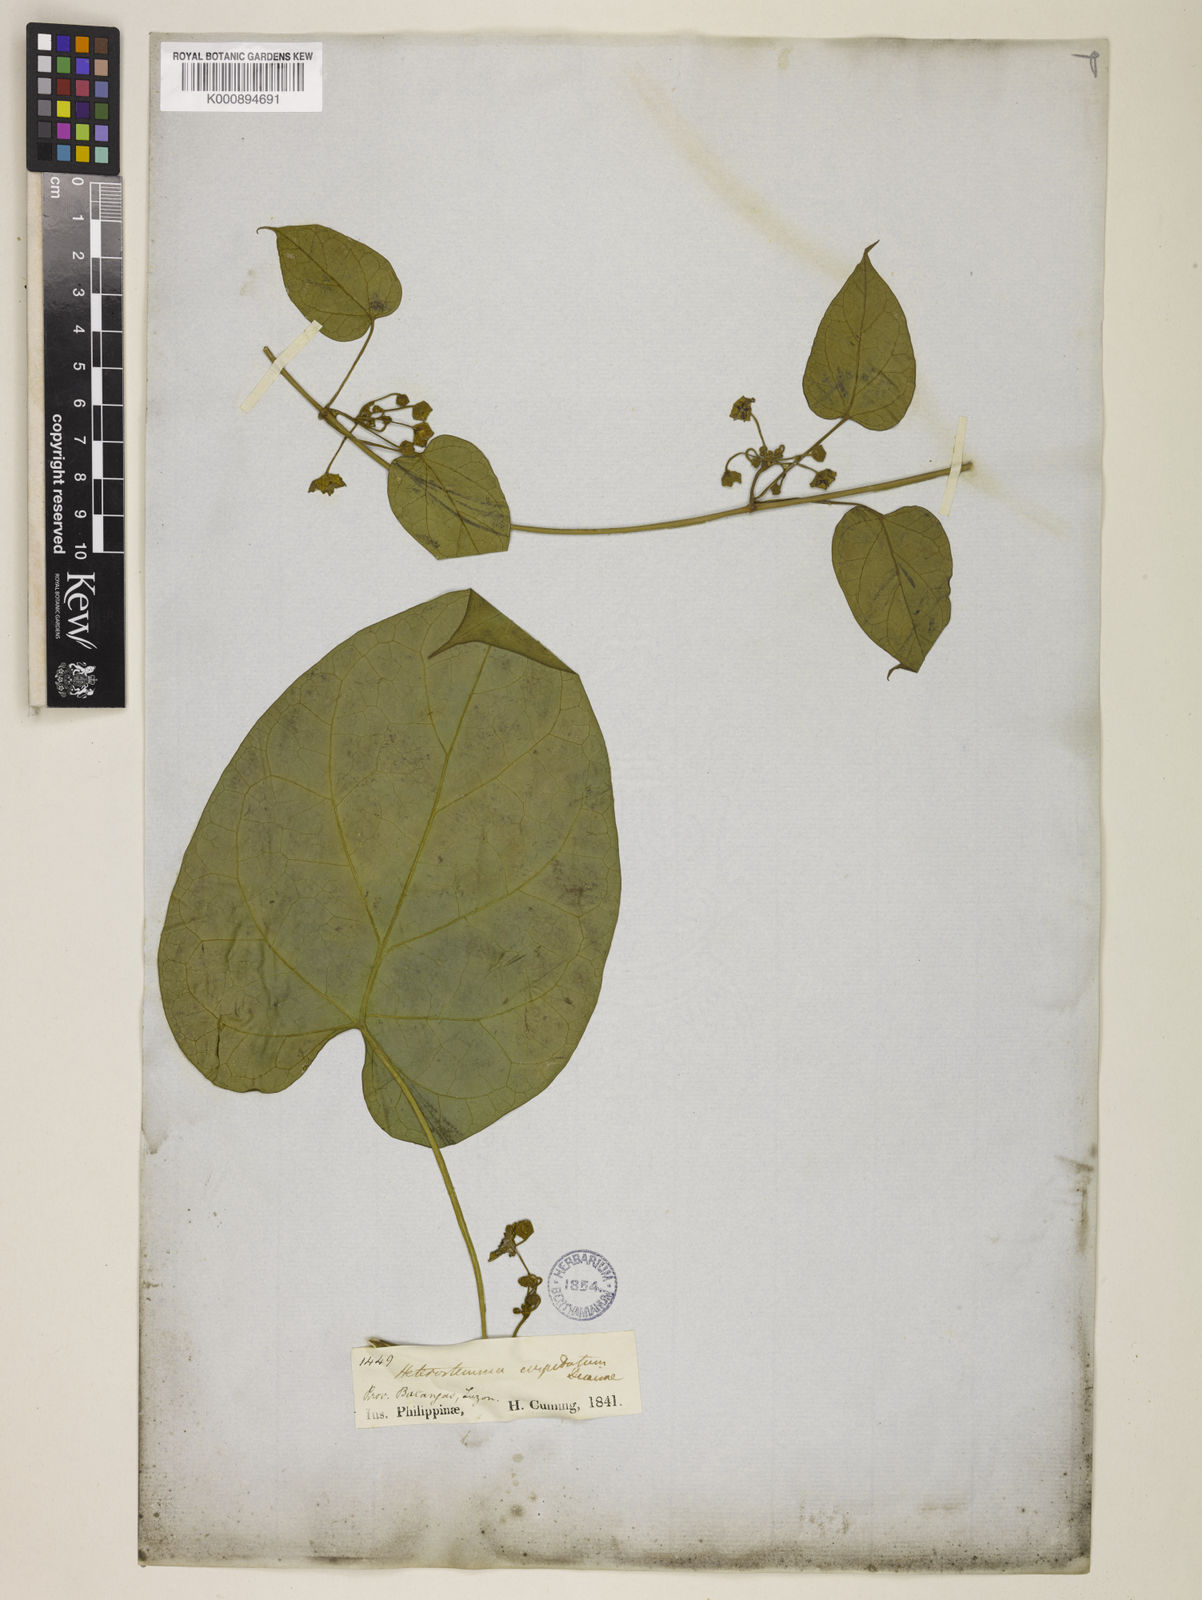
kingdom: Plantae
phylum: Tracheophyta
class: Magnoliopsida
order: Gentianales
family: Apocynaceae
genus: Heterostemma
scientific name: Heterostemma cuspidatum
